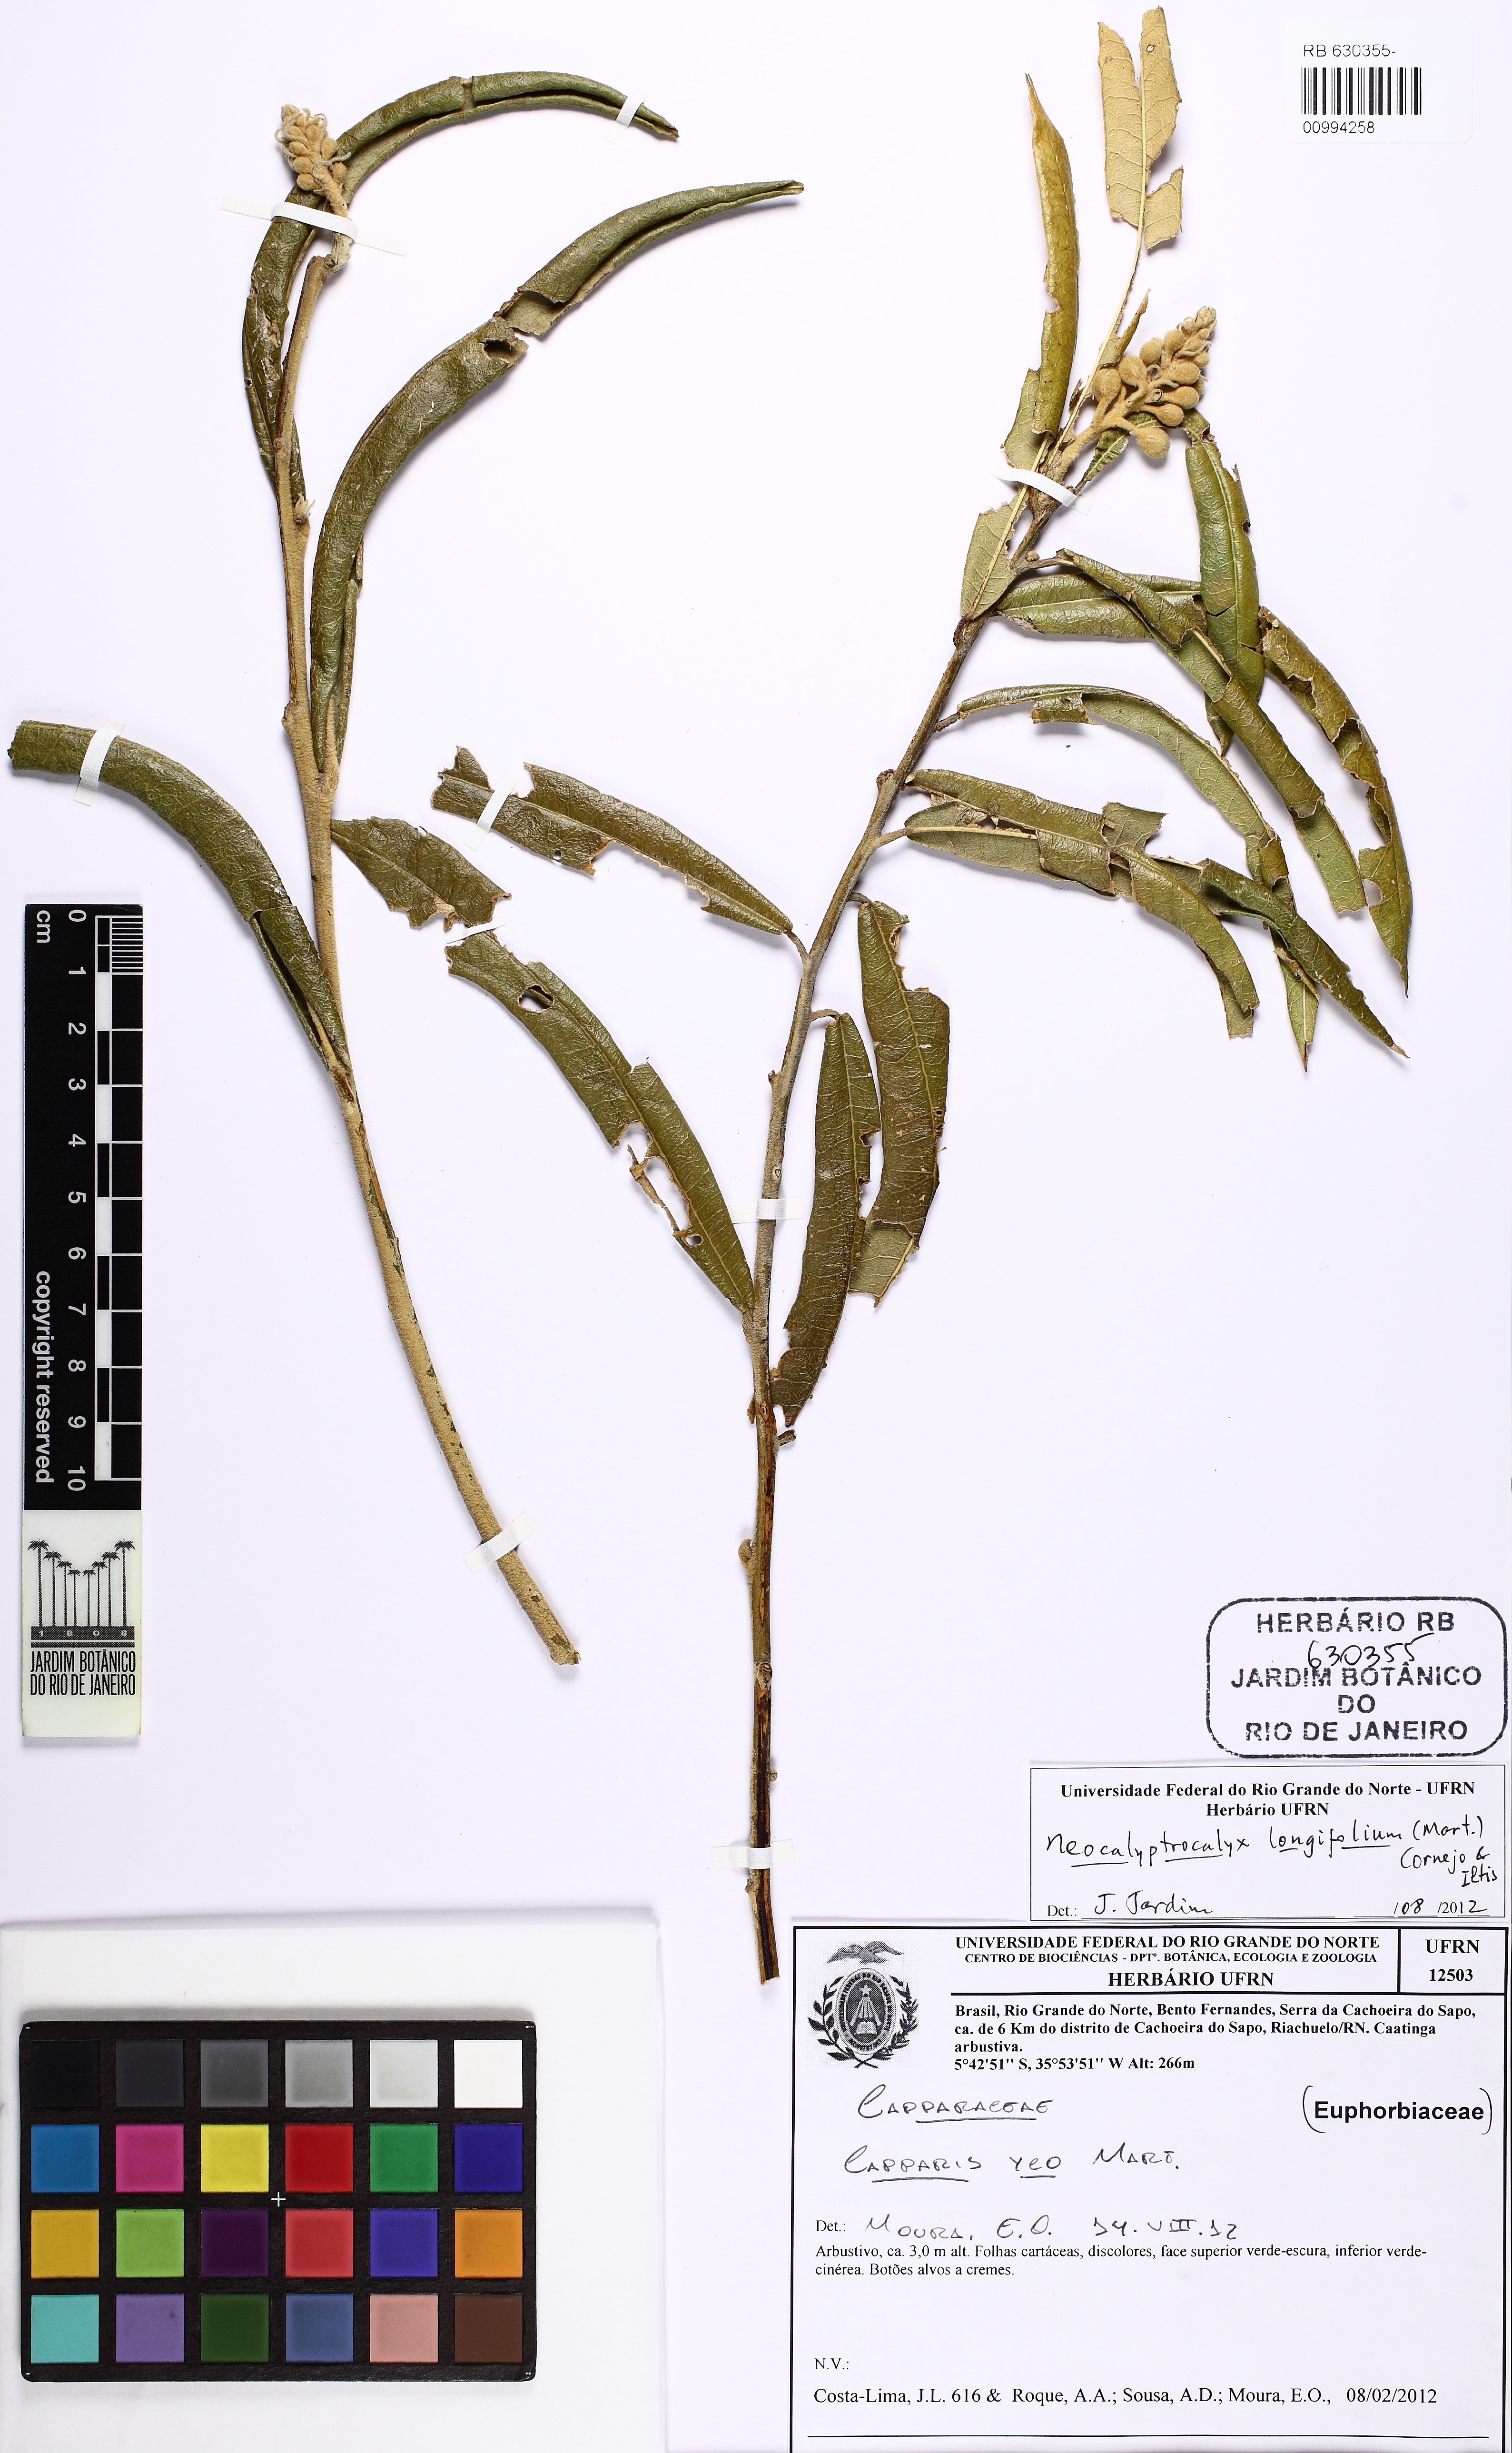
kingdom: Plantae
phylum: Tracheophyta
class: Magnoliopsida
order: Brassicales
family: Capparaceae
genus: Neocalyptrocalyx
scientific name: Neocalyptrocalyx longifolium
